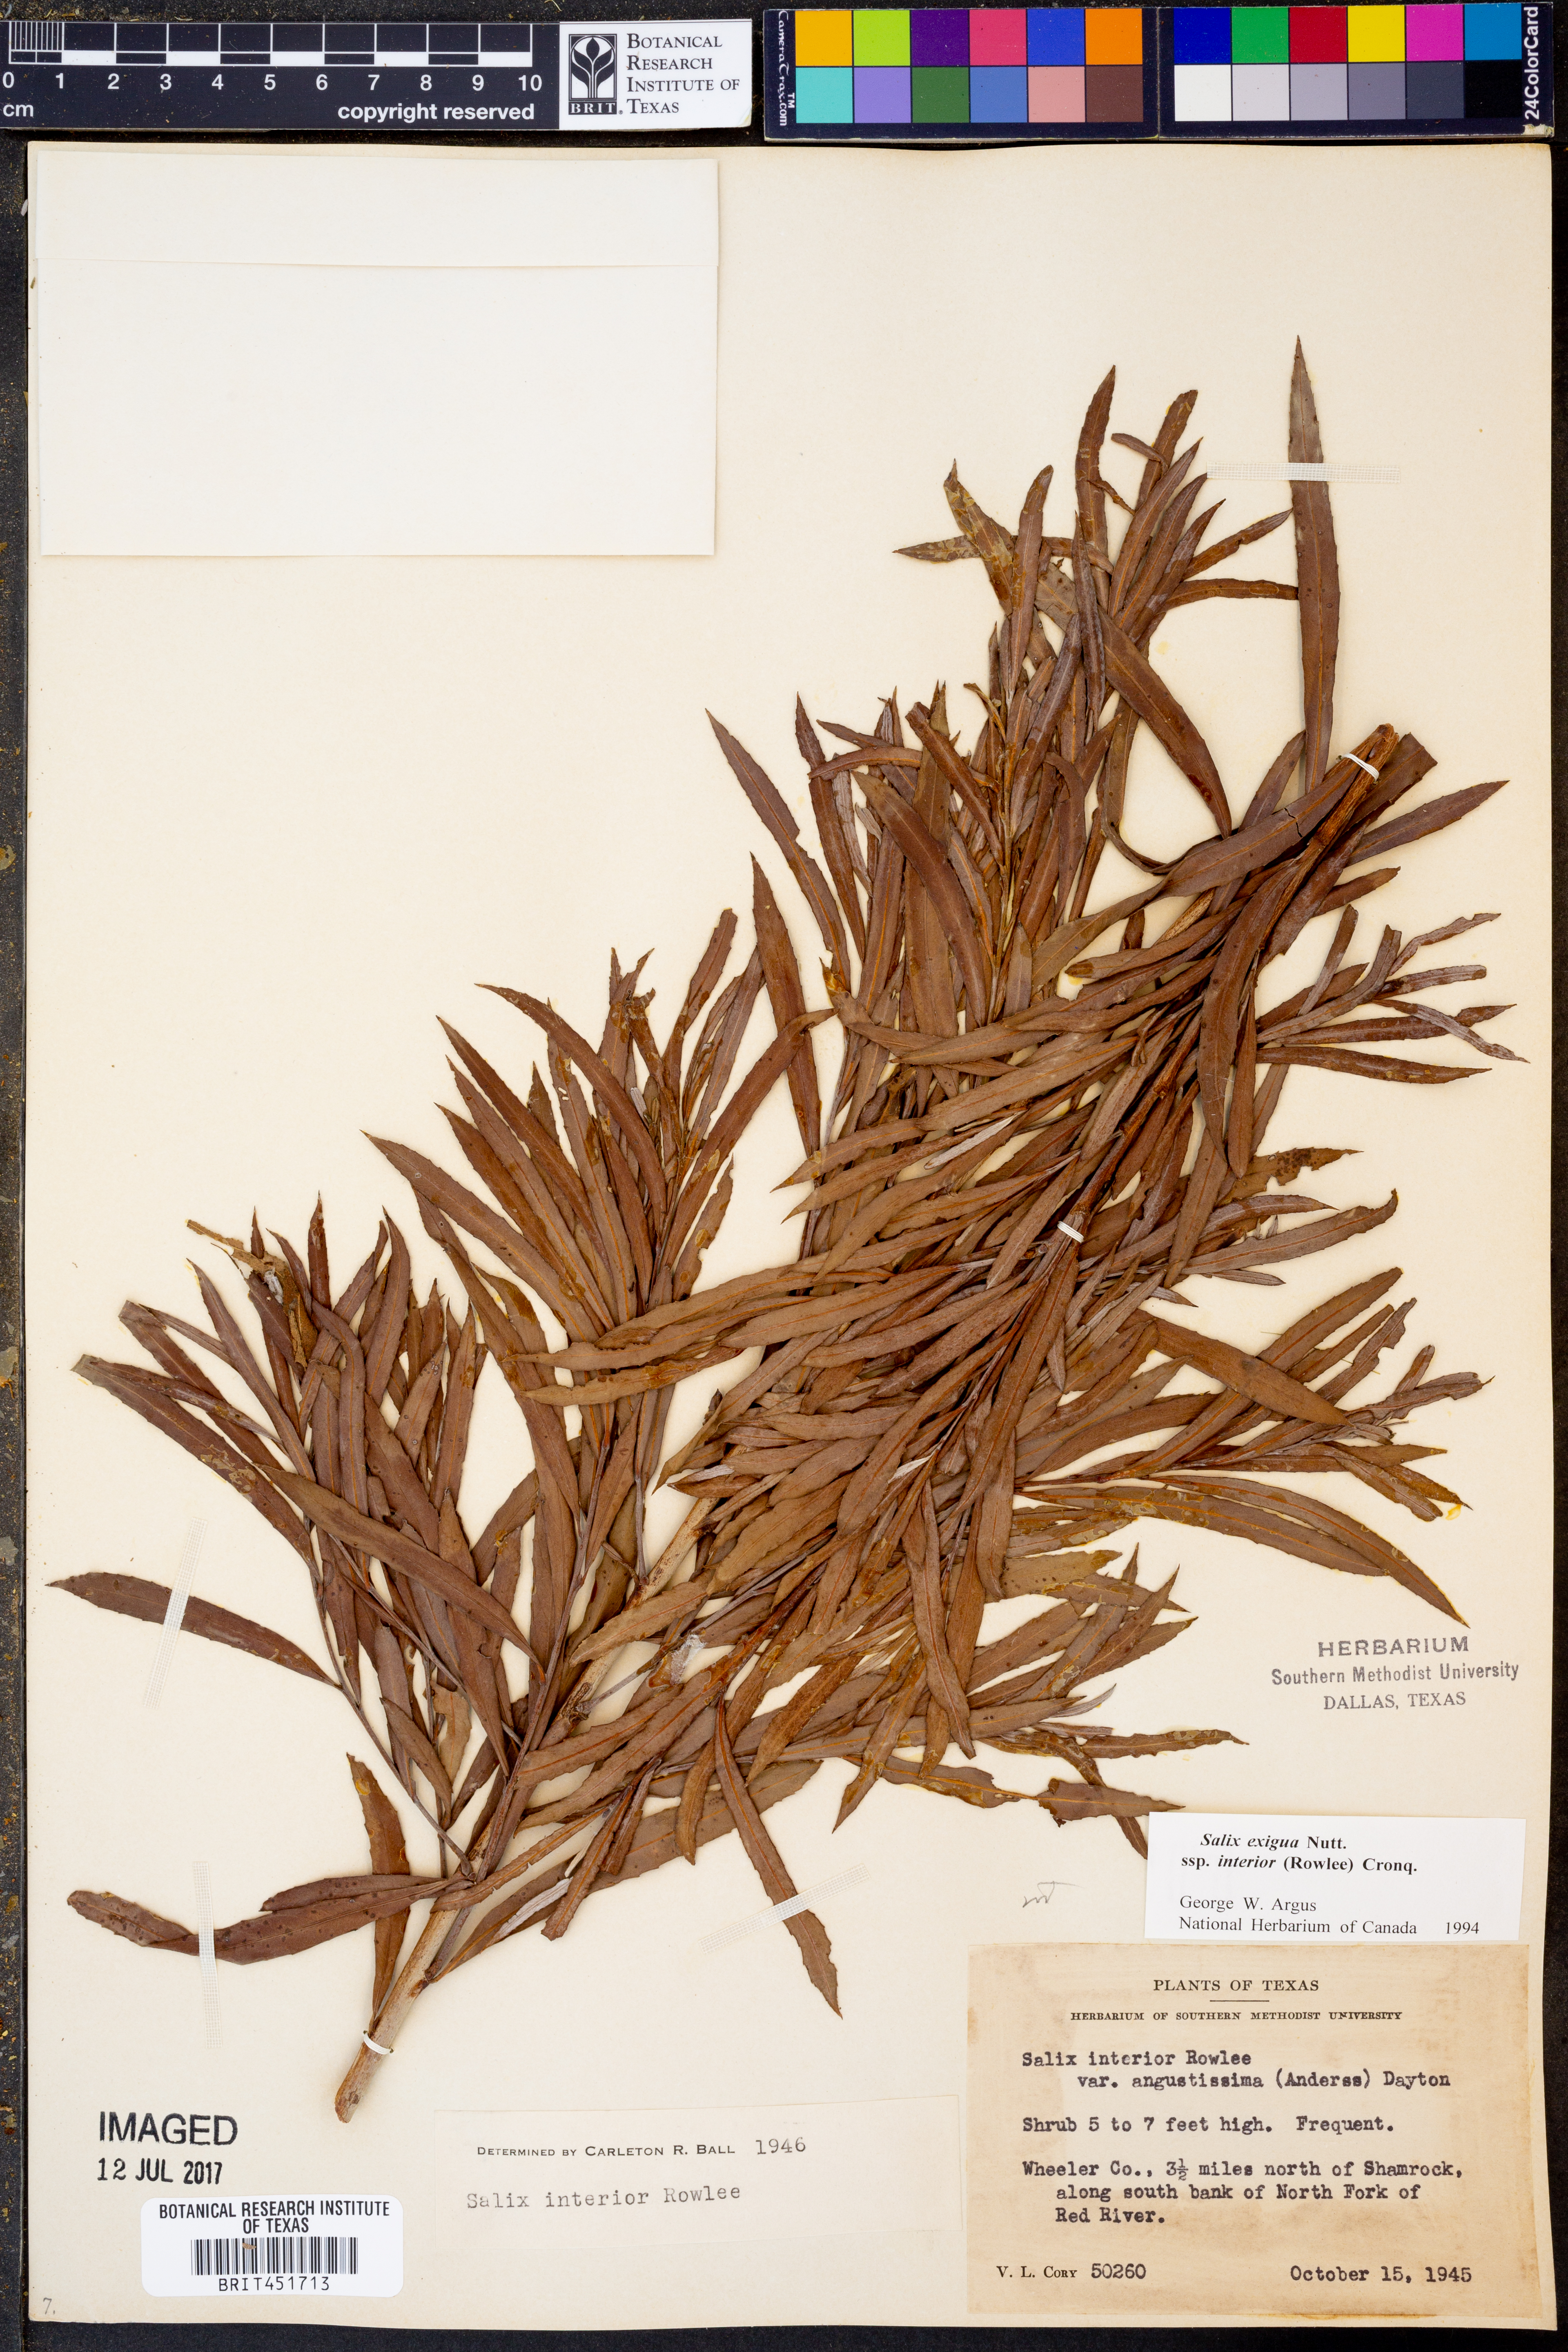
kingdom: Plantae
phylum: Tracheophyta
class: Magnoliopsida
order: Malpighiales
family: Salicaceae
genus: Salix
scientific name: Salix interior
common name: Sandbar willow
